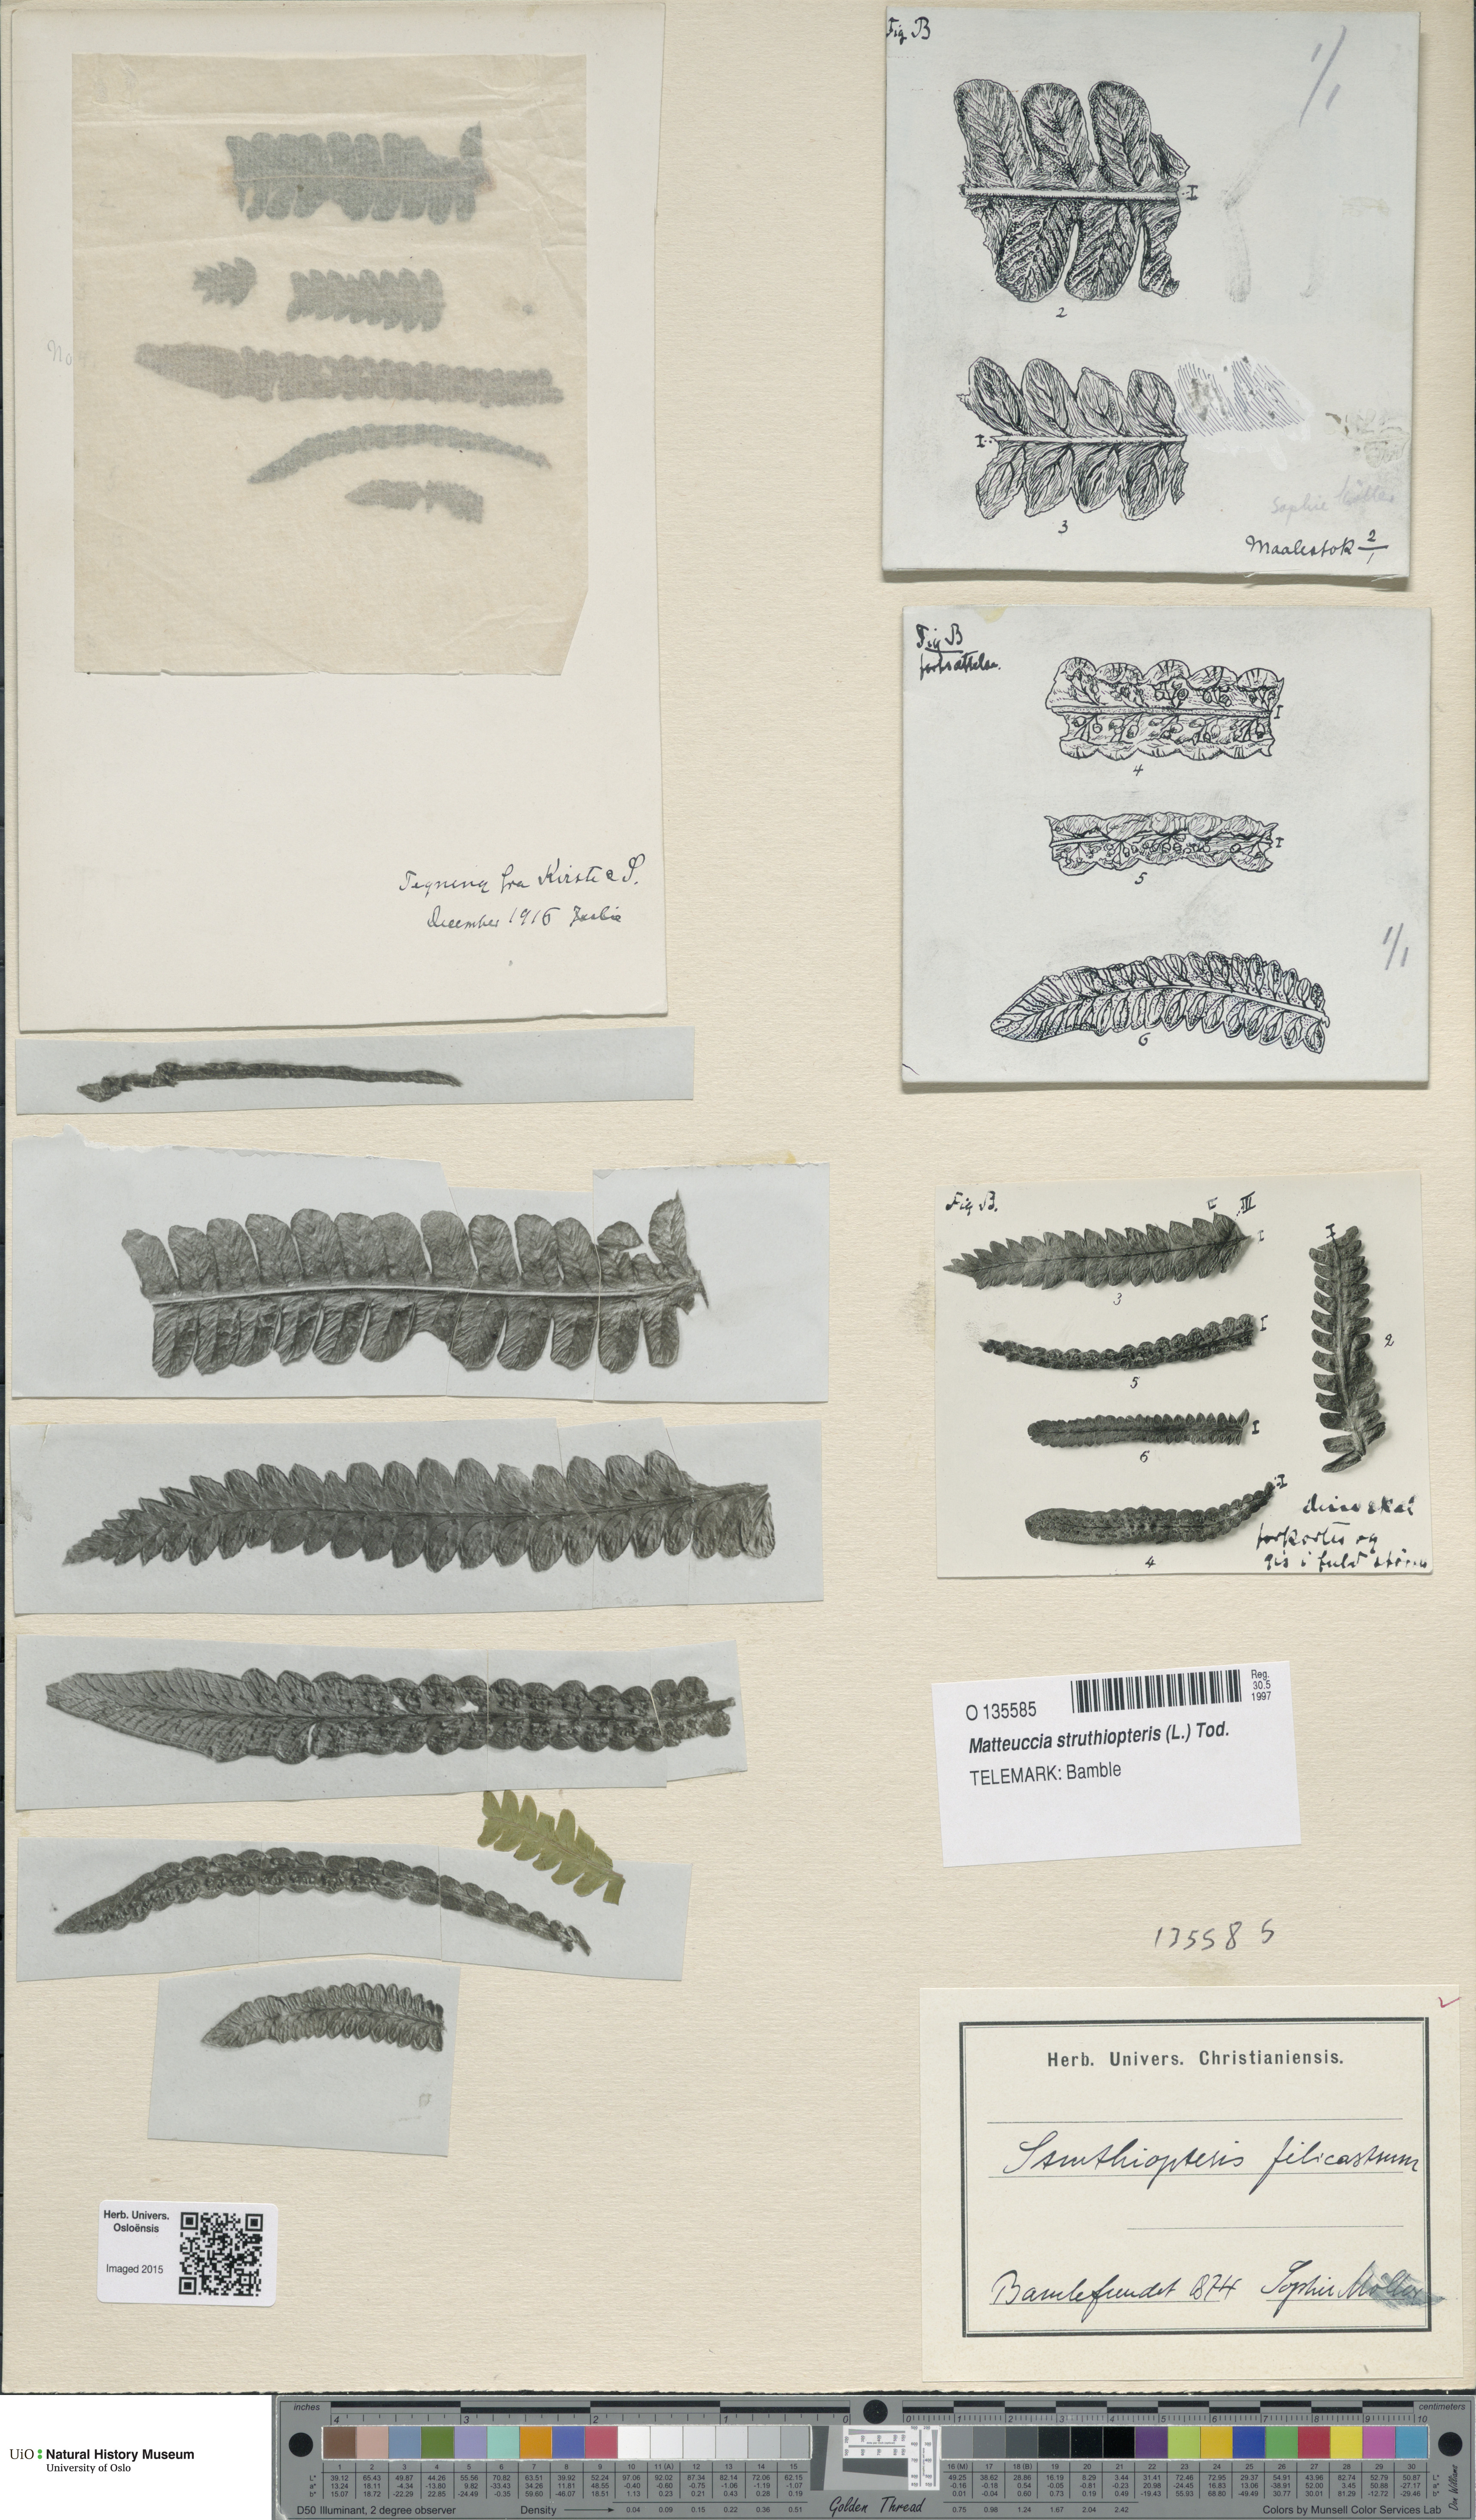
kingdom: Plantae
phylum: Tracheophyta
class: Polypodiopsida
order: Polypodiales
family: Onocleaceae
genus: Matteuccia
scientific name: Matteuccia struthiopteris
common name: Ostrich fern
